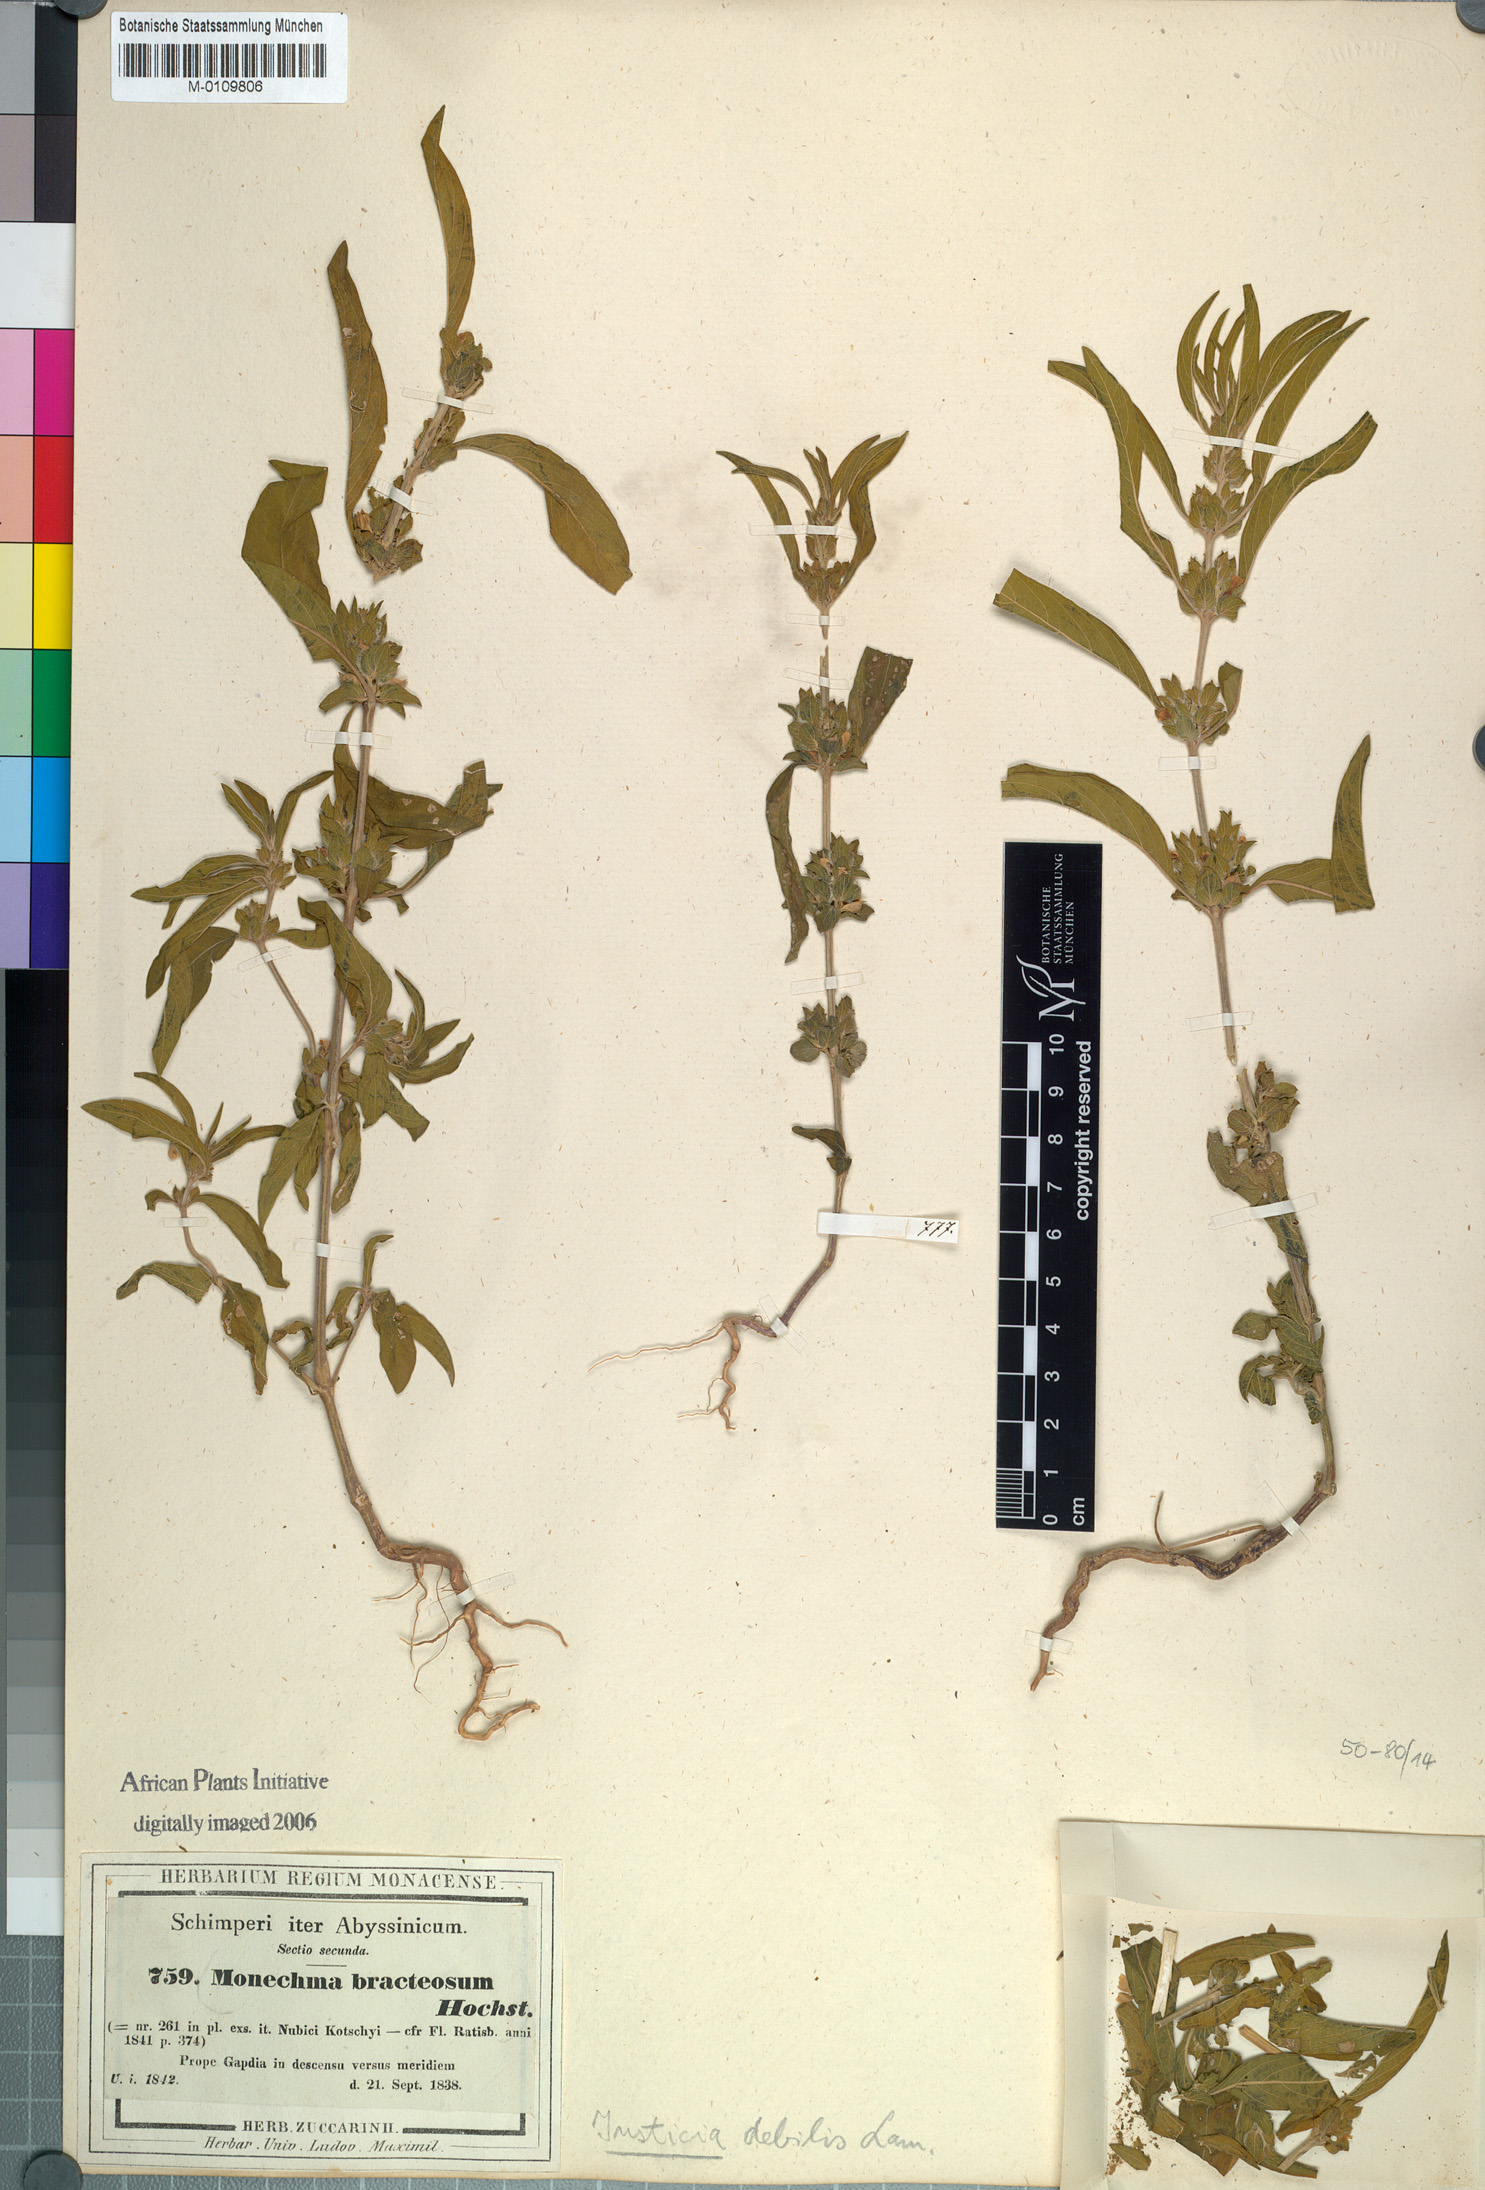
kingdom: Plantae
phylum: Tracheophyta
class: Magnoliopsida
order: Lamiales
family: Acanthaceae
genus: Monechma
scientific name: Monechma debile
